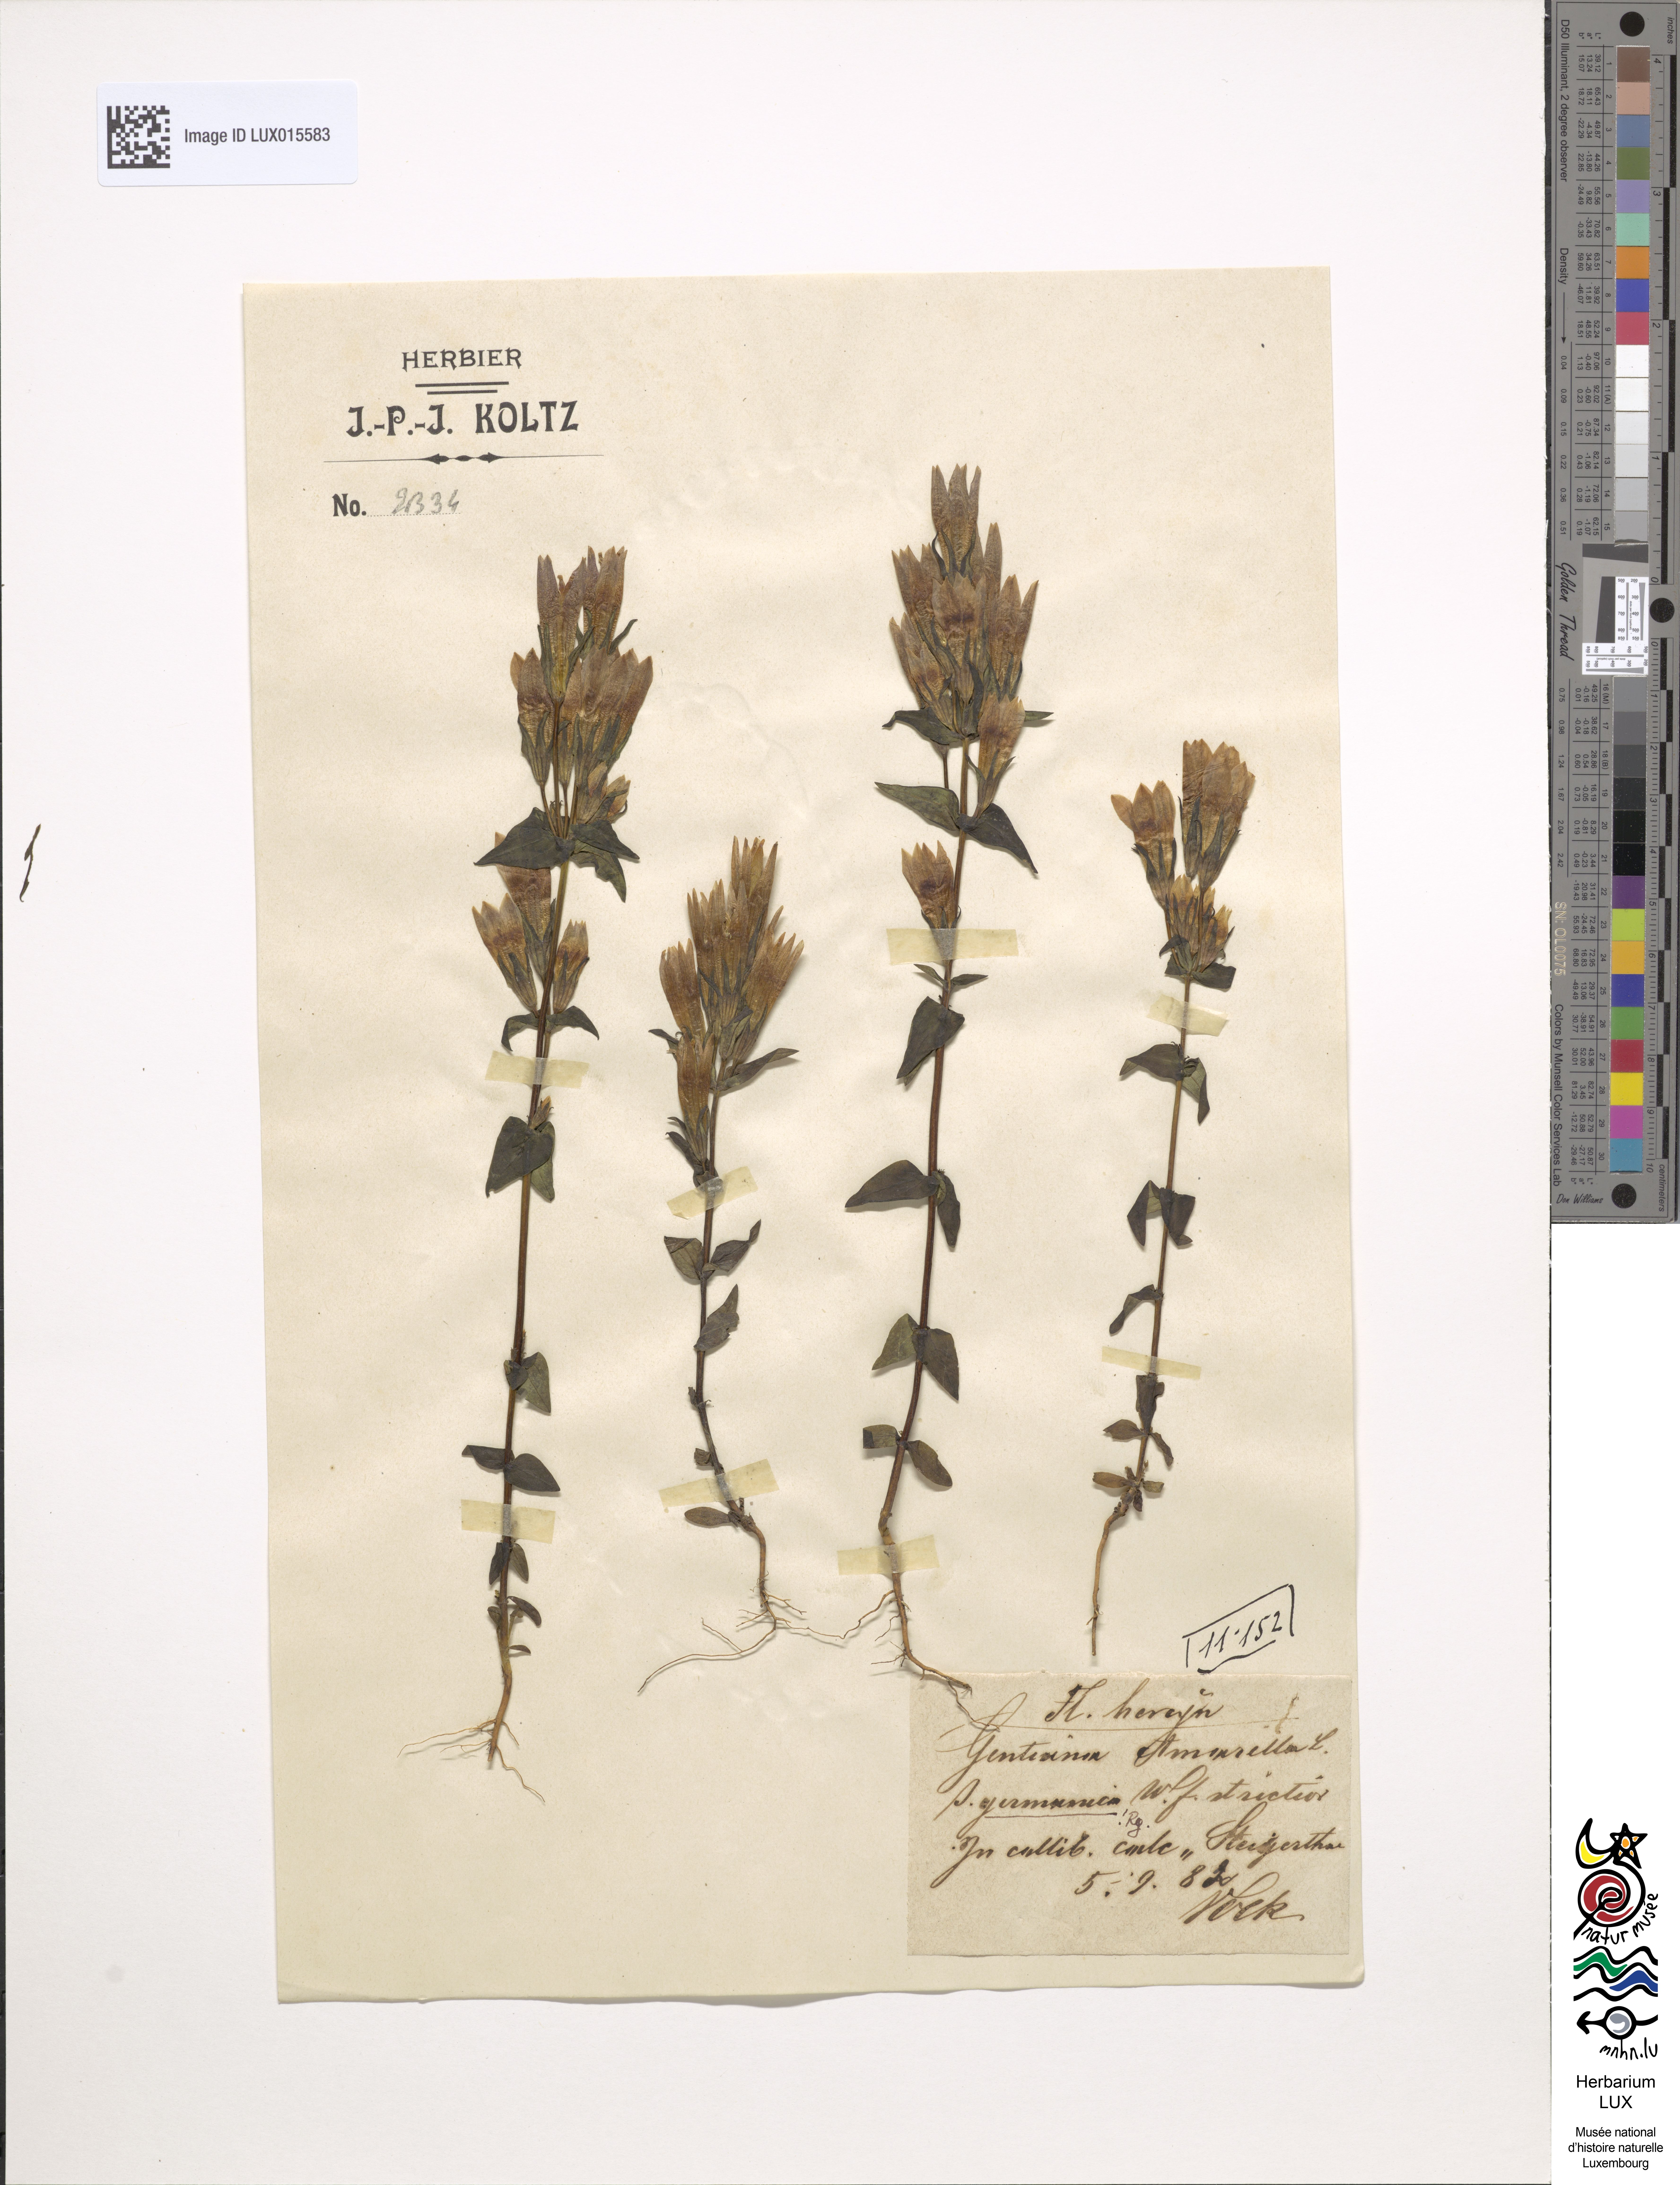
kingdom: Plantae
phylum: Tracheophyta
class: Magnoliopsida
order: Gentianales
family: Gentianaceae
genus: Gentianella
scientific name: Gentianella amarella
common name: Autumn gentian
